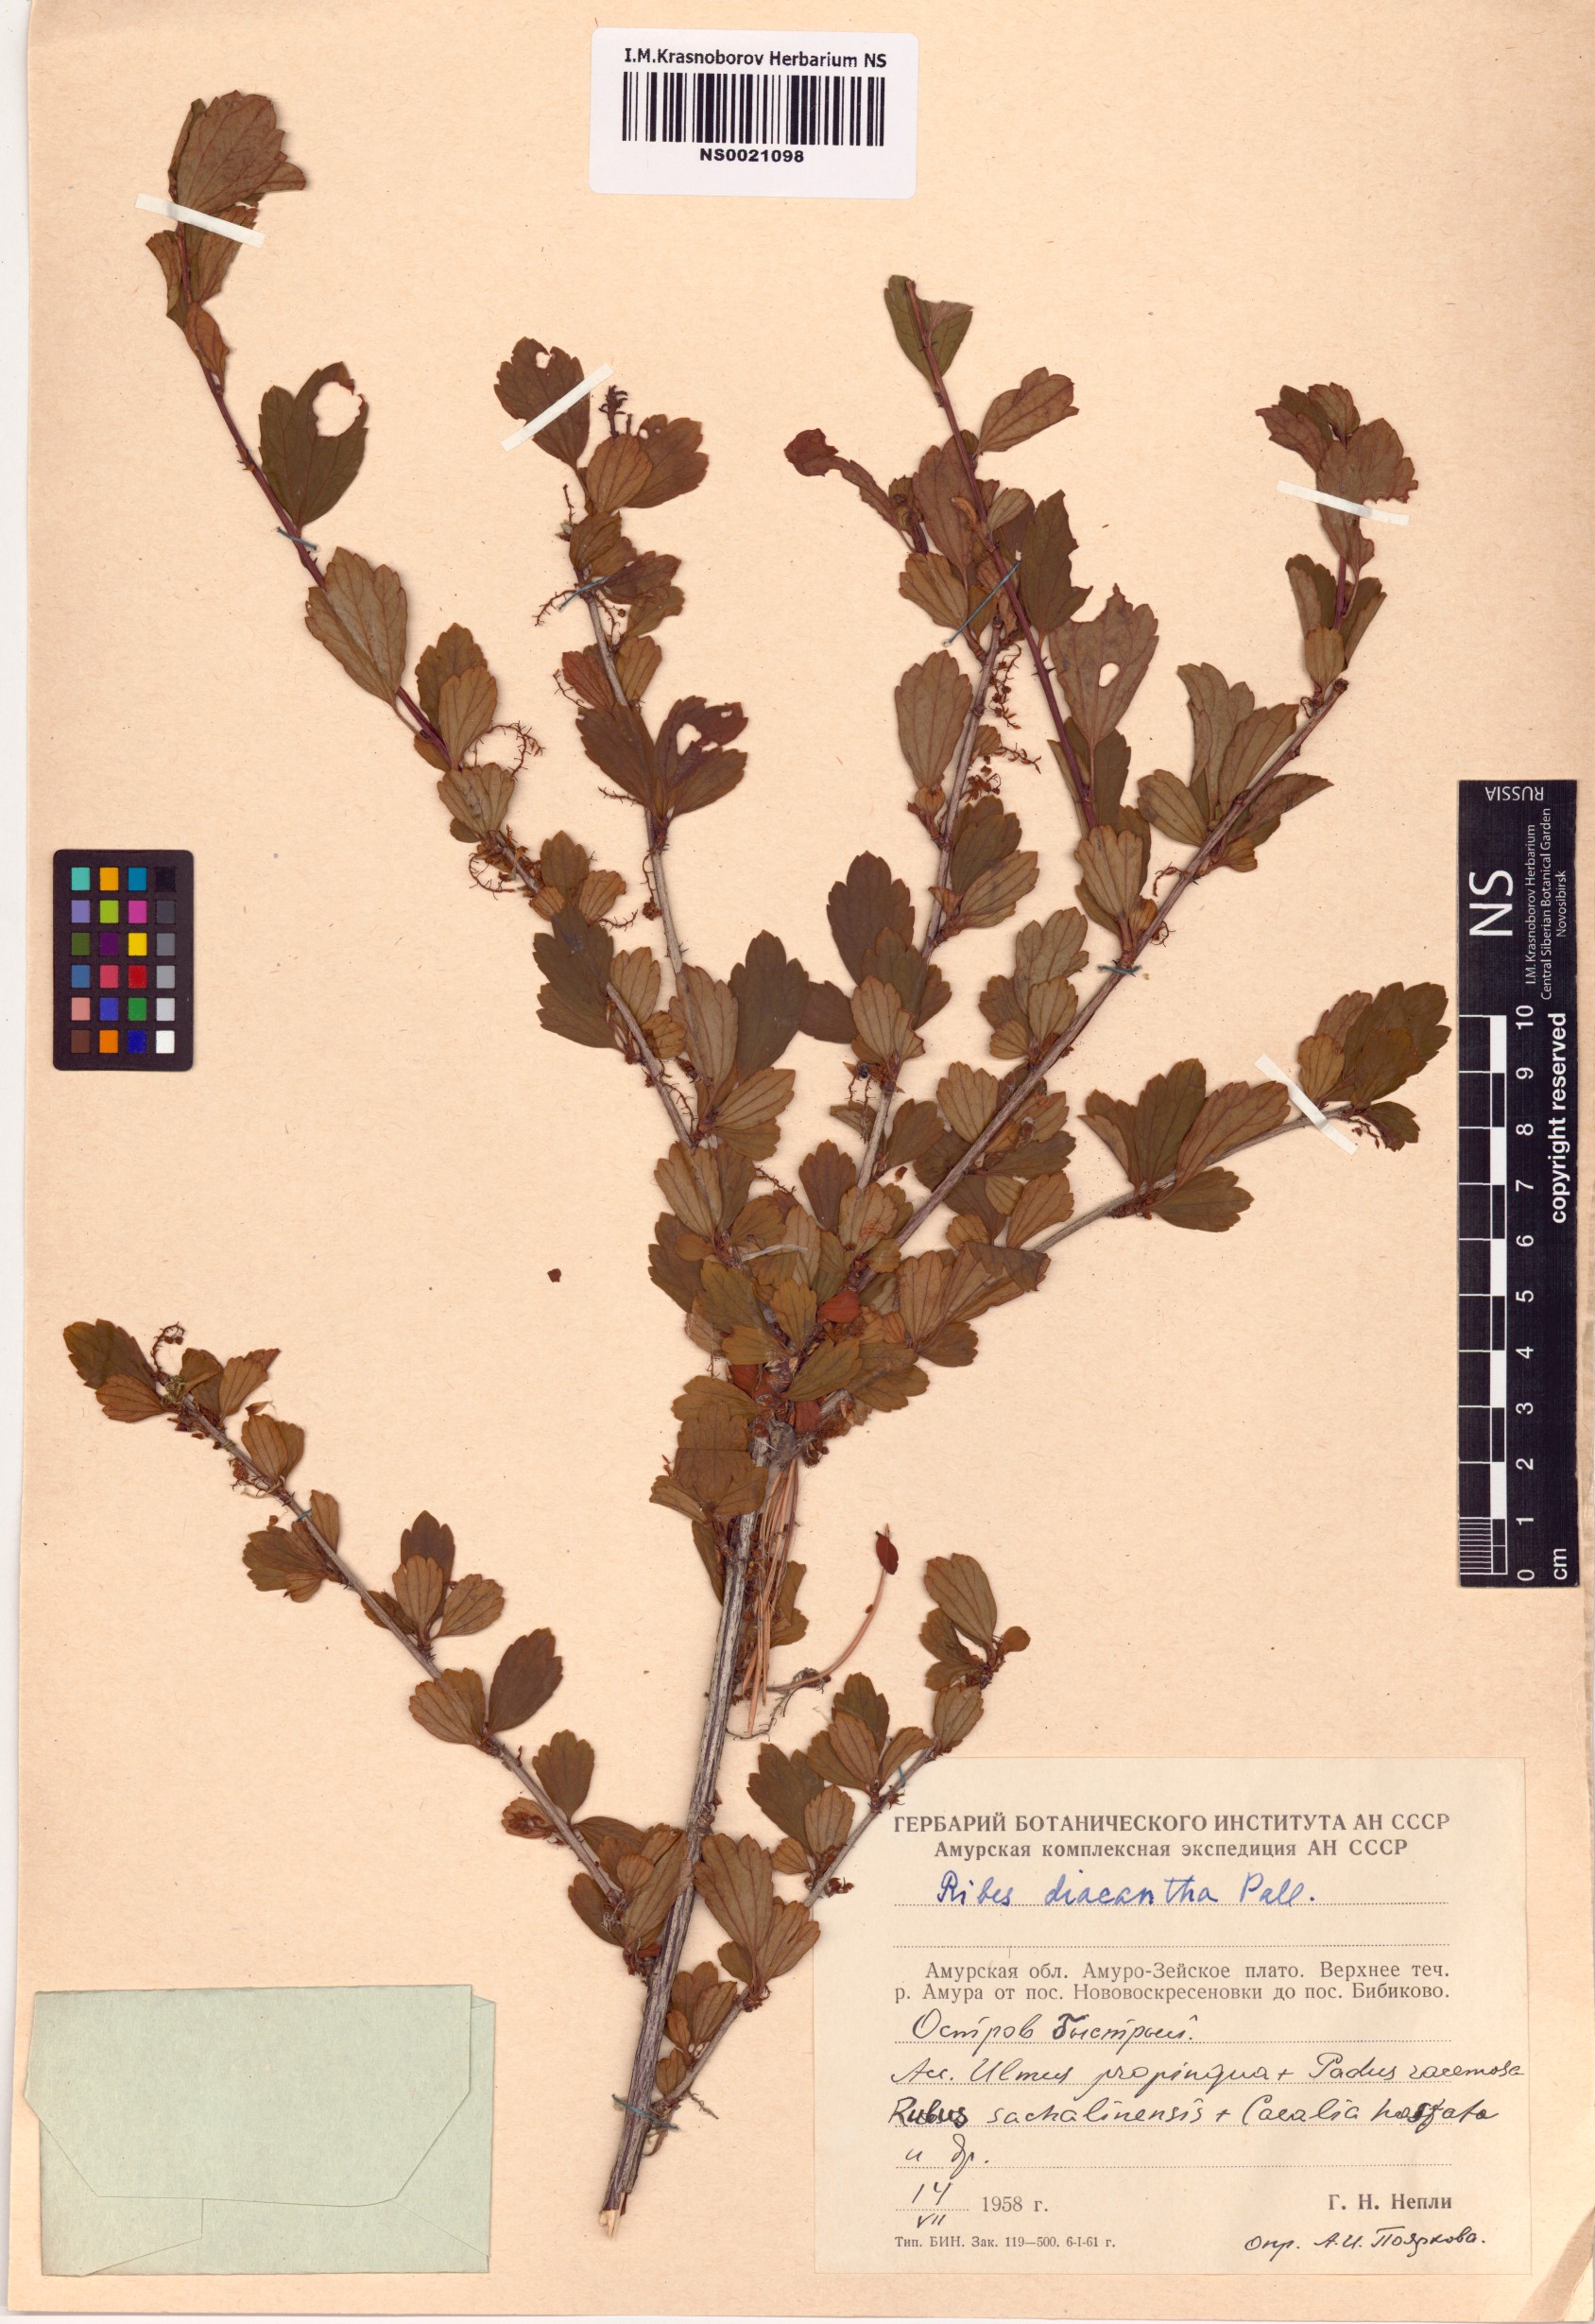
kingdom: Plantae
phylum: Tracheophyta
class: Magnoliopsida
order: Saxifragales
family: Grossulariaceae
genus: Ribes
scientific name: Ribes diacanthum
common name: Siberian currant
